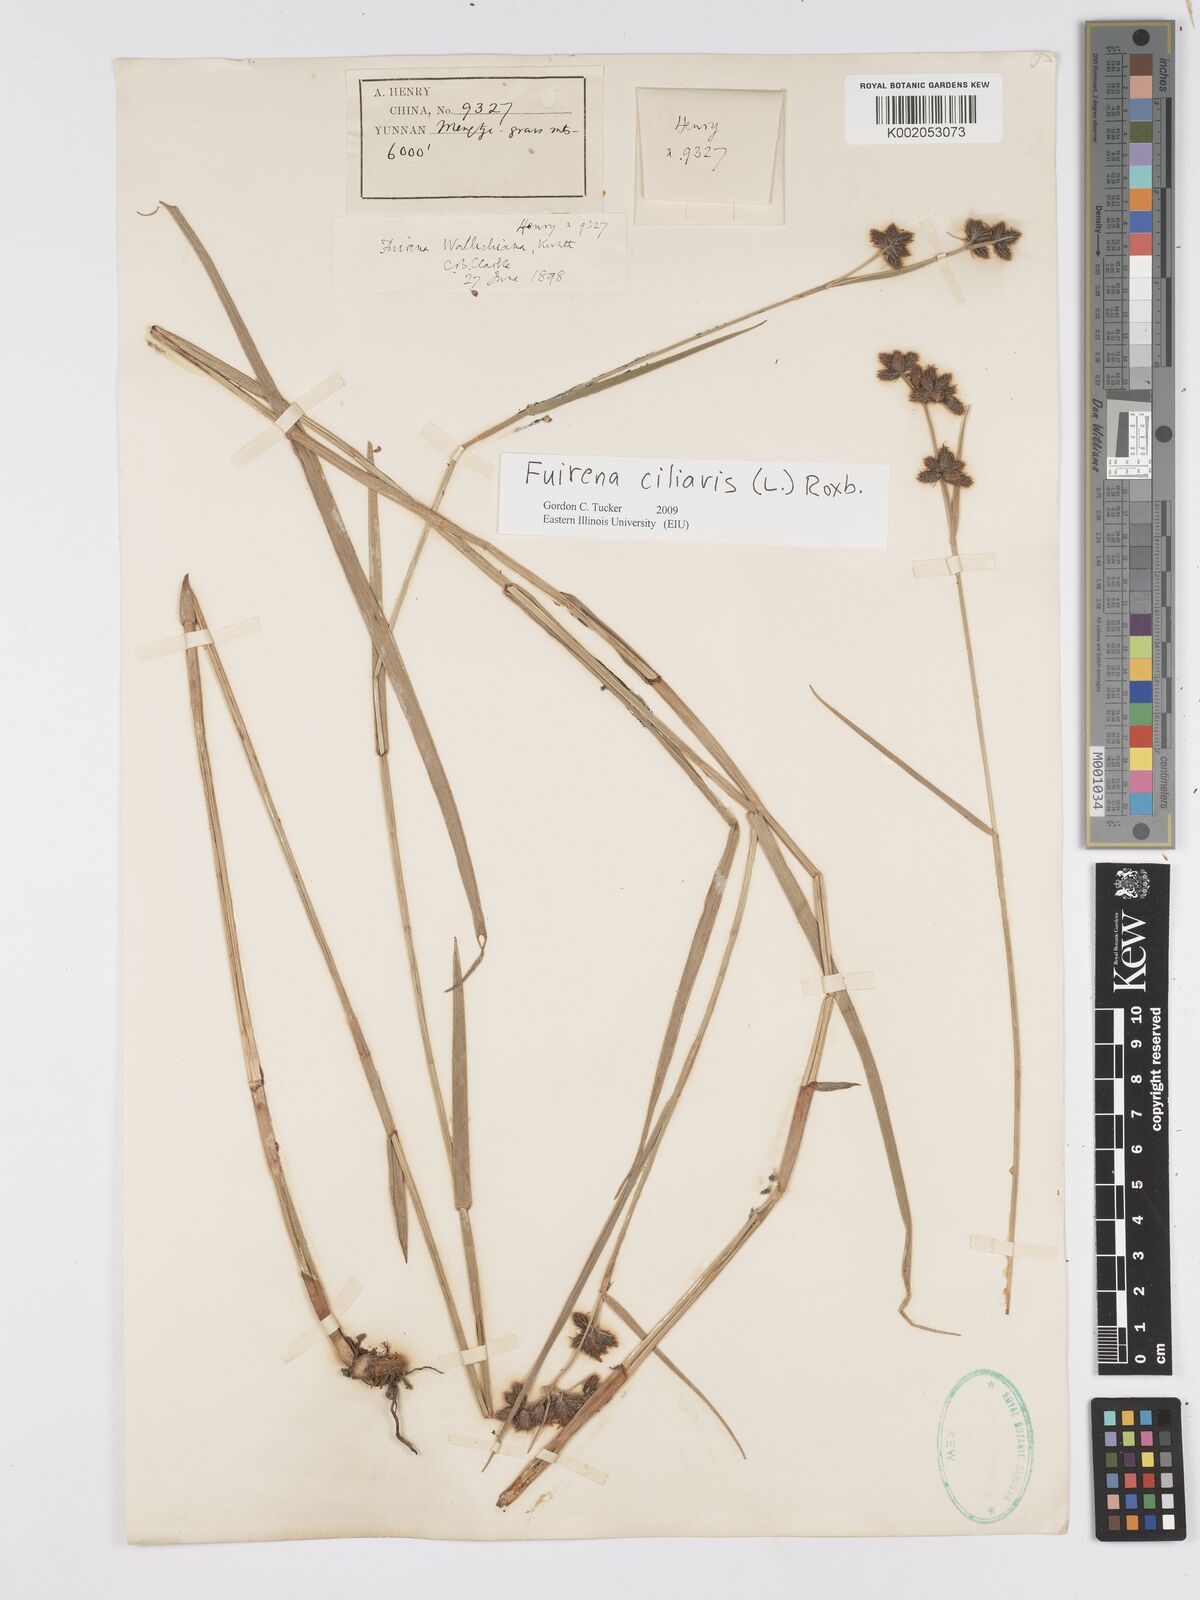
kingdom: Plantae
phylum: Tracheophyta
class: Liliopsida
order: Poales
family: Cyperaceae
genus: Fuirena
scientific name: Fuirena ciliaris
